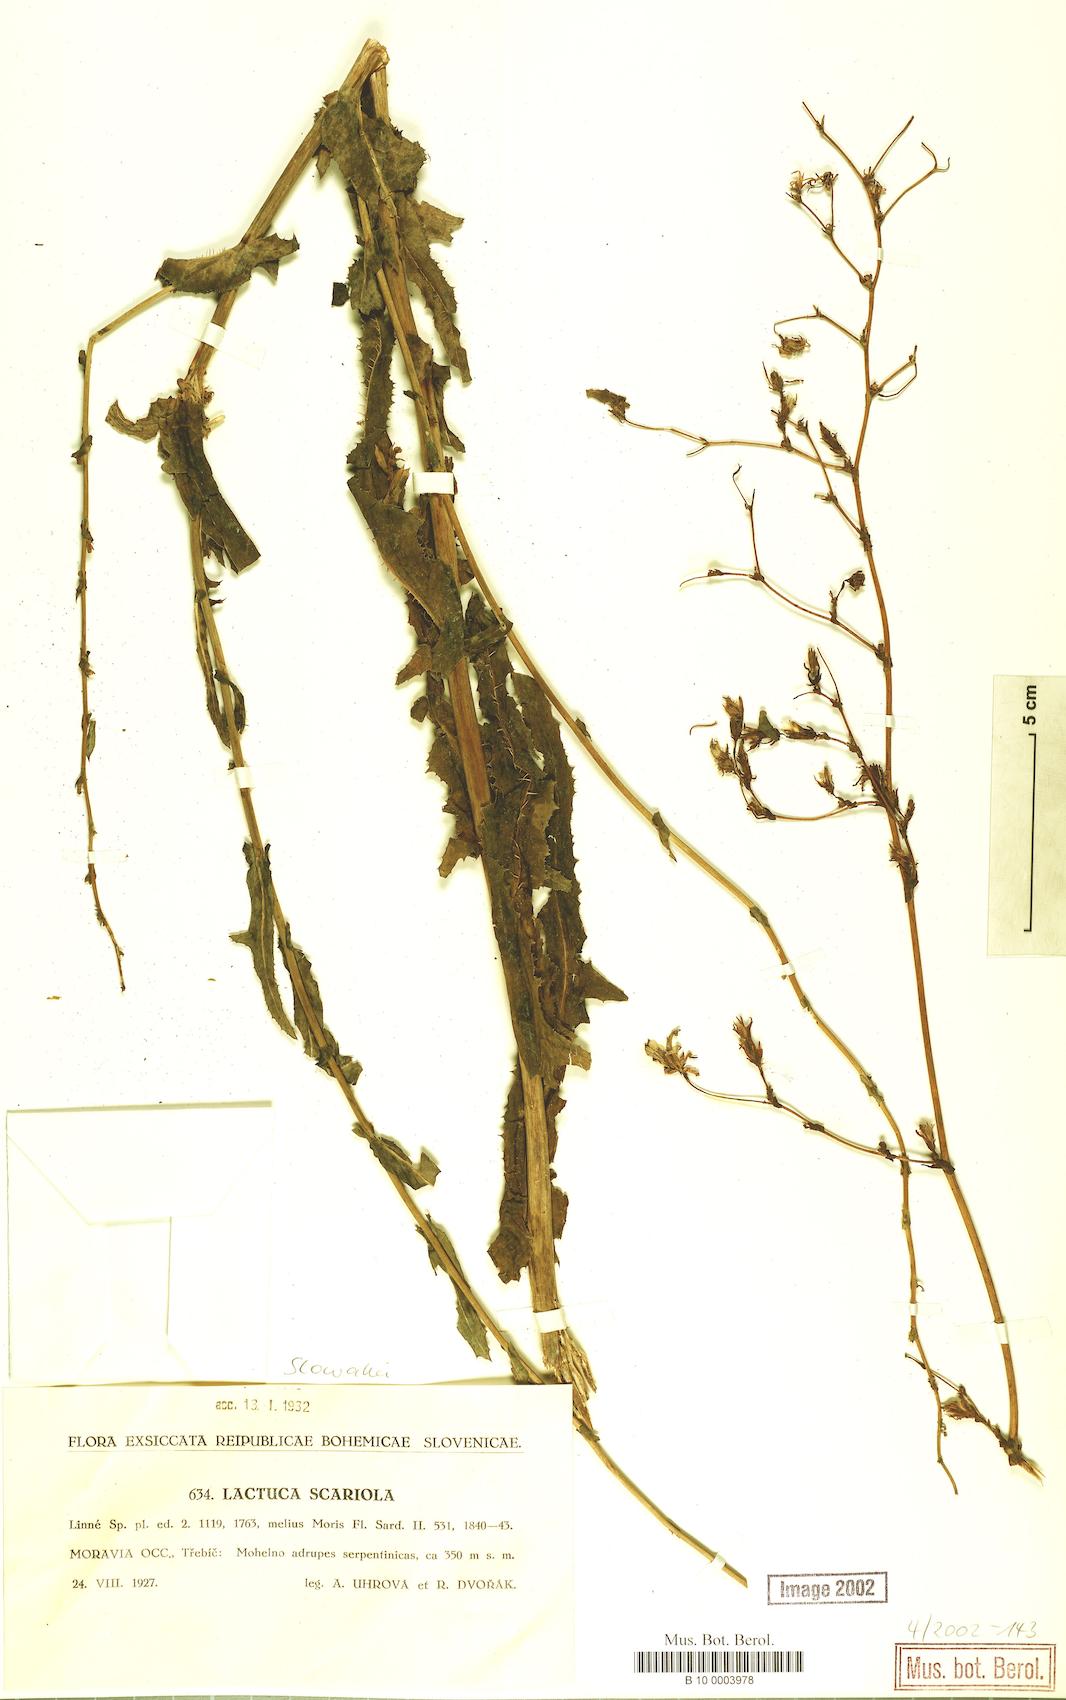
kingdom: Plantae
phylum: Tracheophyta
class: Magnoliopsida
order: Asterales
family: Asteraceae
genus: Lactuca
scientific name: Lactuca serriola
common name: Prickly lettuce
